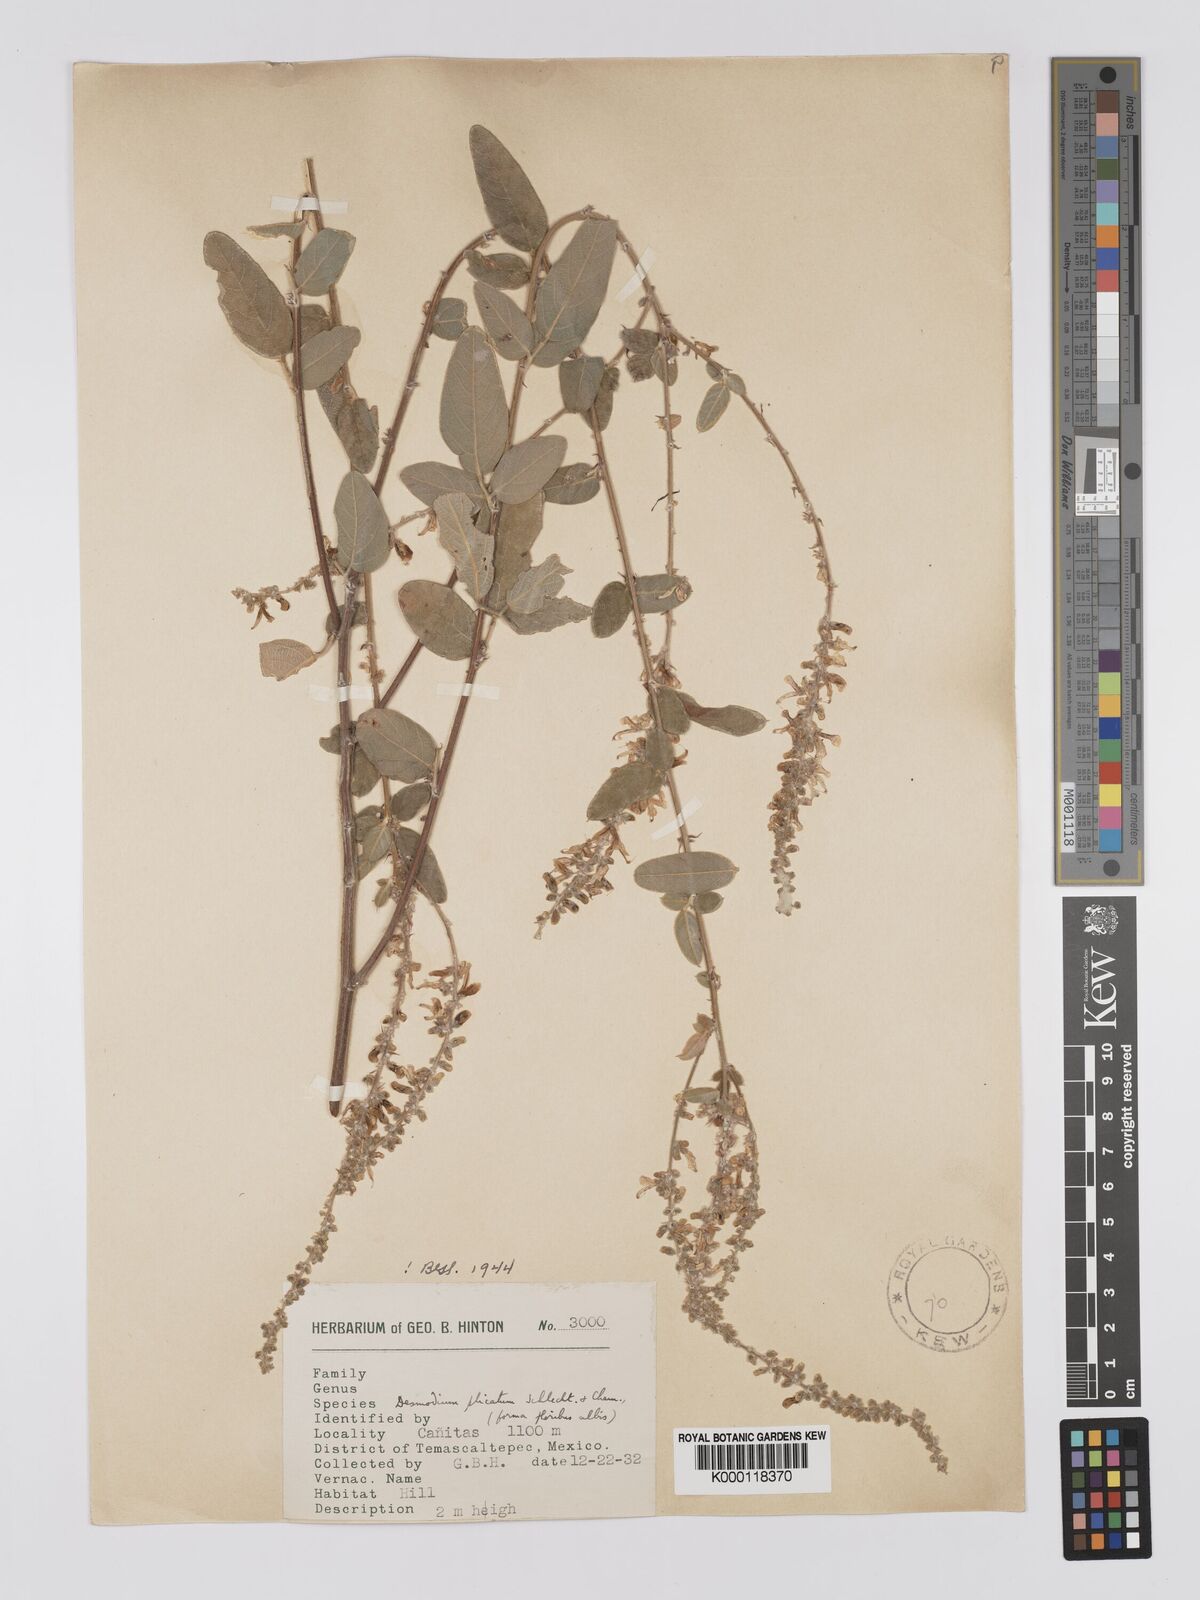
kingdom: Plantae
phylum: Tracheophyta
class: Magnoliopsida
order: Fabales
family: Fabaceae
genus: Desmodium
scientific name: Desmodium plicatum
